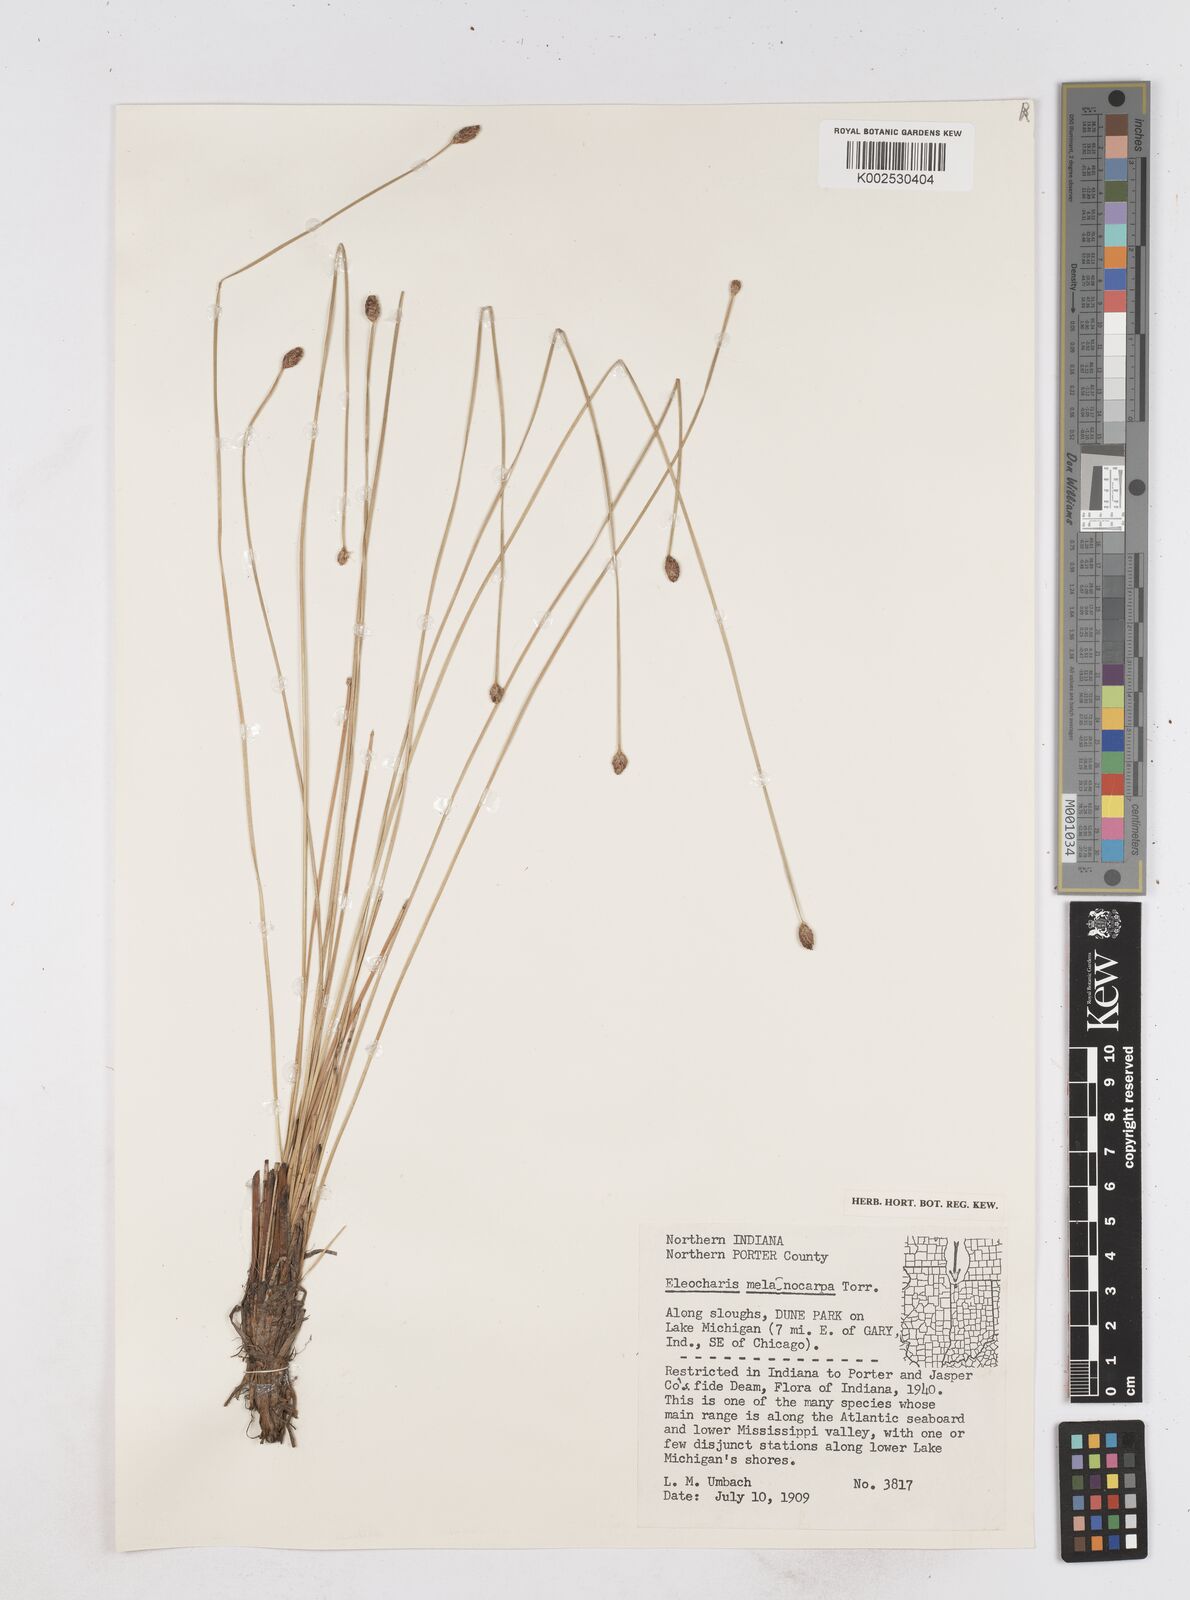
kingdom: Plantae
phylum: Tracheophyta
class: Liliopsida
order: Poales
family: Cyperaceae
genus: Eleocharis
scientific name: Eleocharis melanocarpa
